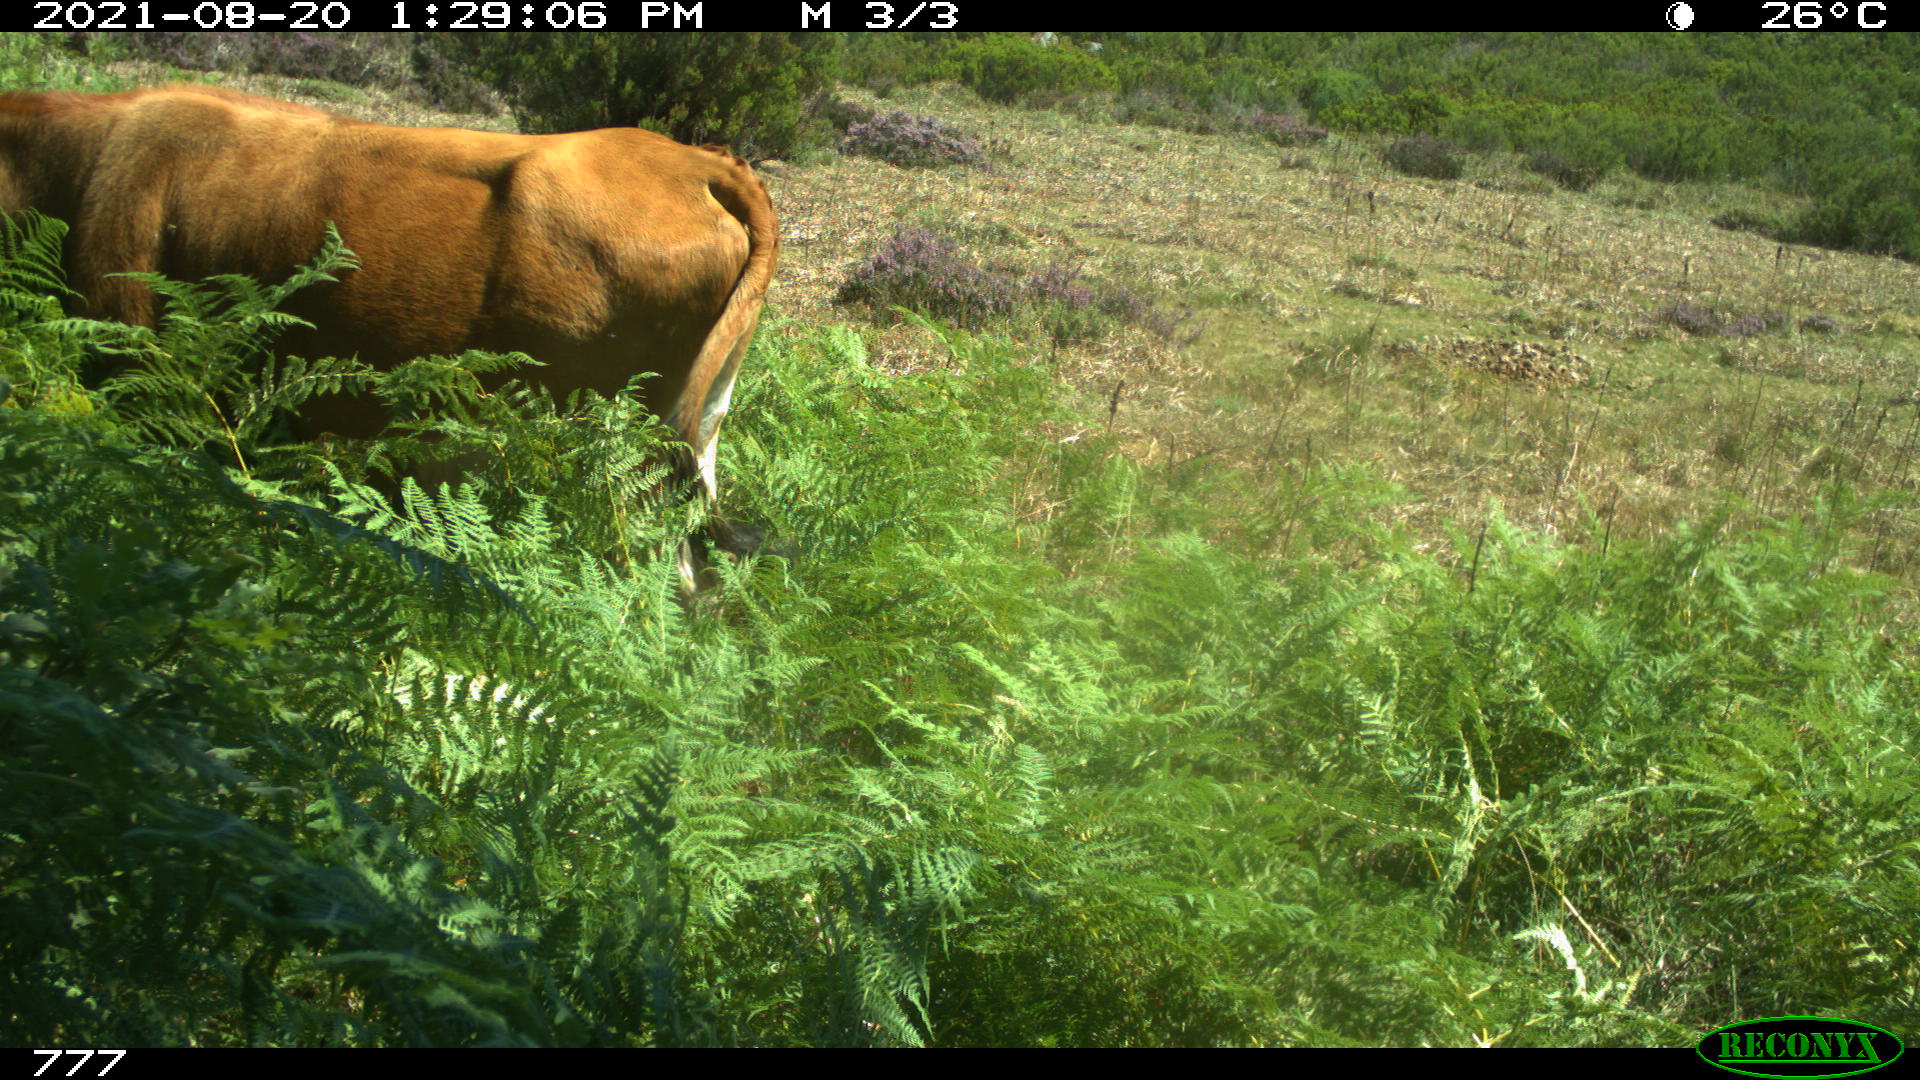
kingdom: Animalia
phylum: Chordata
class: Mammalia
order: Artiodactyla
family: Bovidae
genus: Bos
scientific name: Bos taurus
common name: Domesticated cattle
